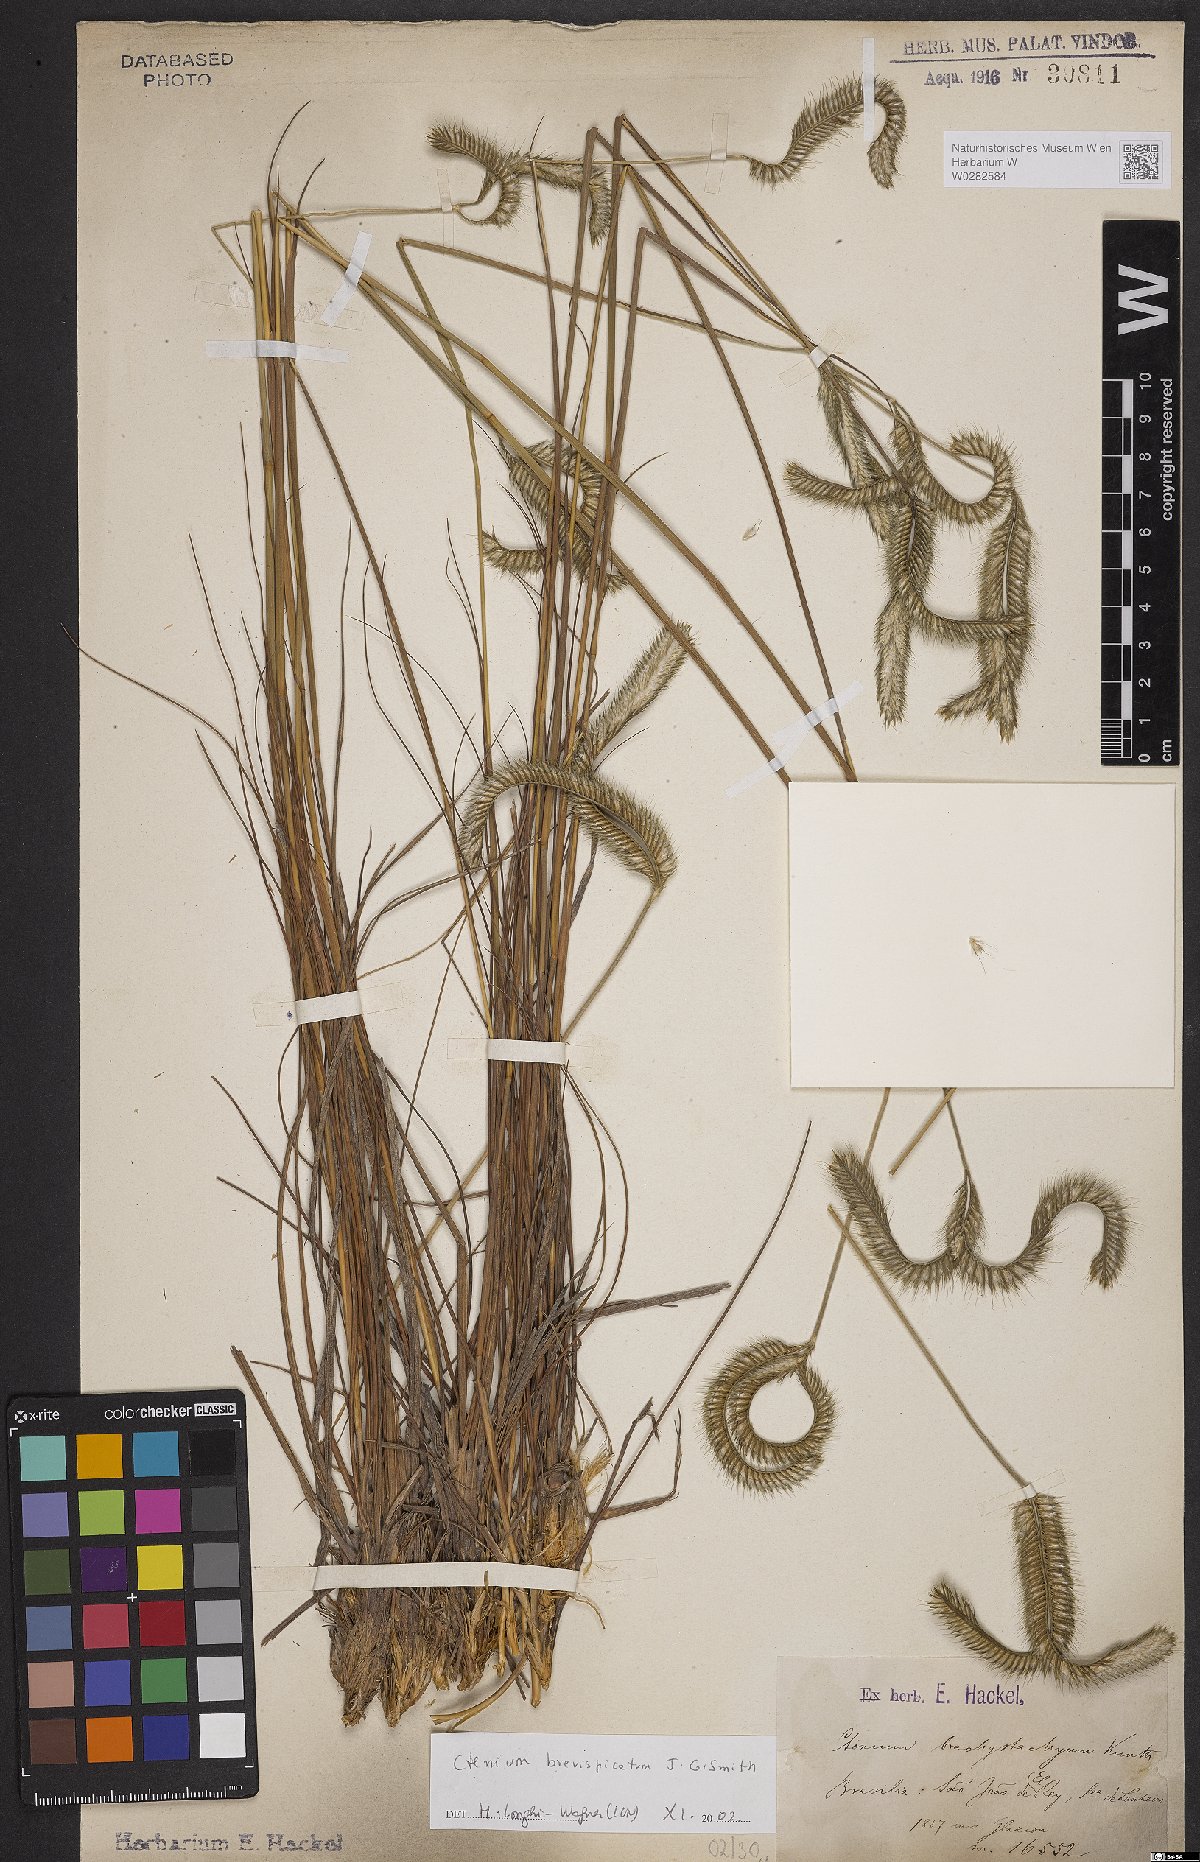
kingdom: Plantae
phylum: Tracheophyta
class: Liliopsida
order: Poales
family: Poaceae
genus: Ctenium
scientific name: Ctenium brevispicatum
